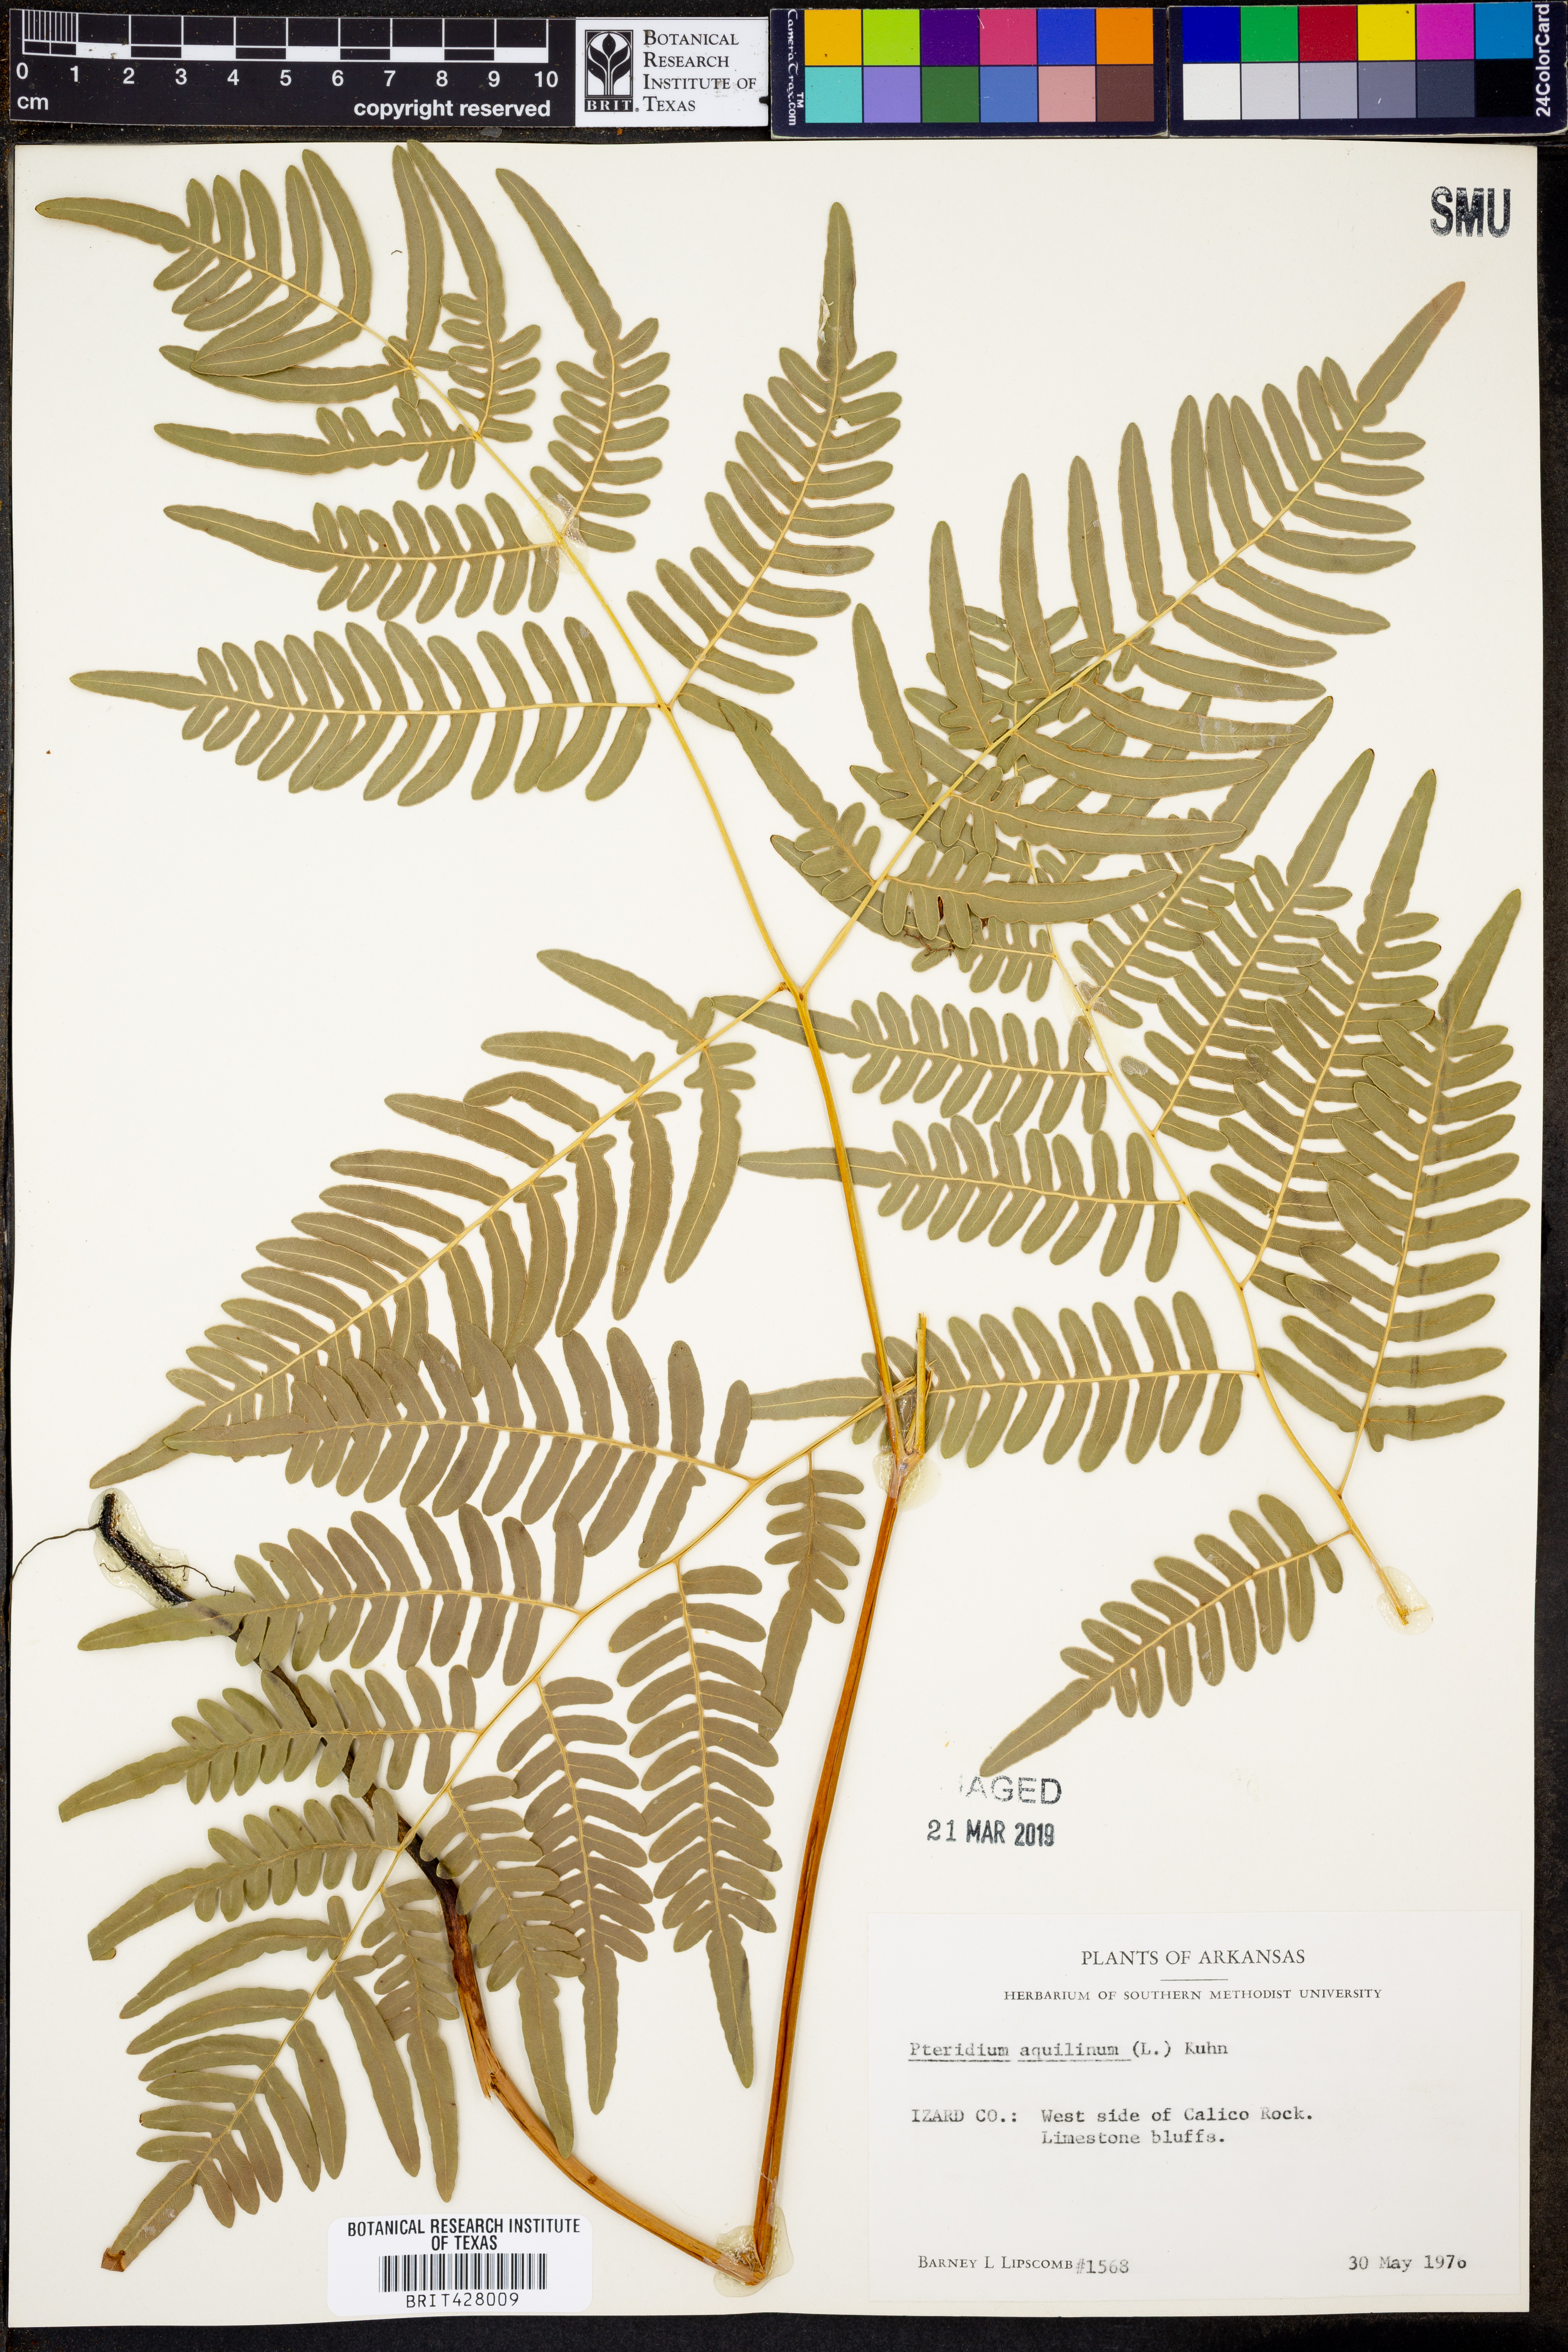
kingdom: Plantae
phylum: Tracheophyta
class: Polypodiopsida
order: Polypodiales
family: Dennstaedtiaceae
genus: Pteridium
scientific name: Pteridium aquilinum
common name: Bracken
